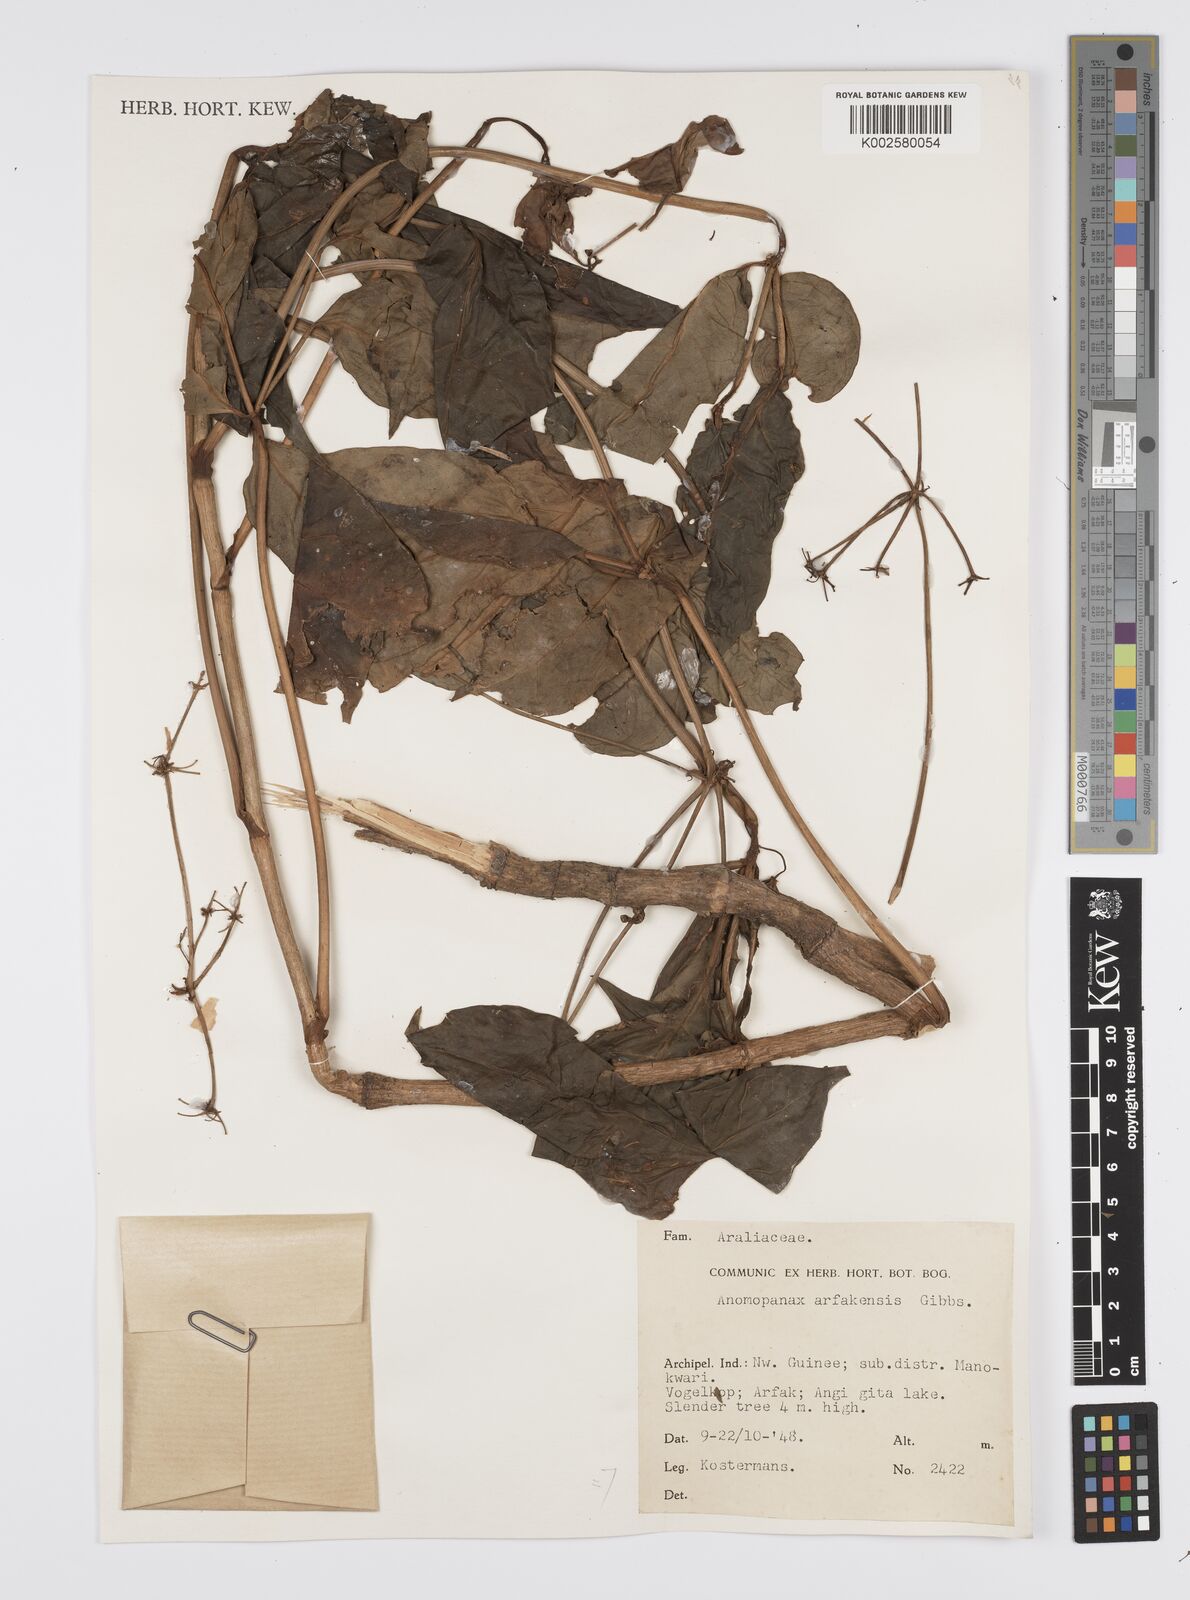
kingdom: Plantae
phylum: Tracheophyta
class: Magnoliopsida
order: Apiales
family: Apiaceae
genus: Mackinlaya
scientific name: Mackinlaya celebica
